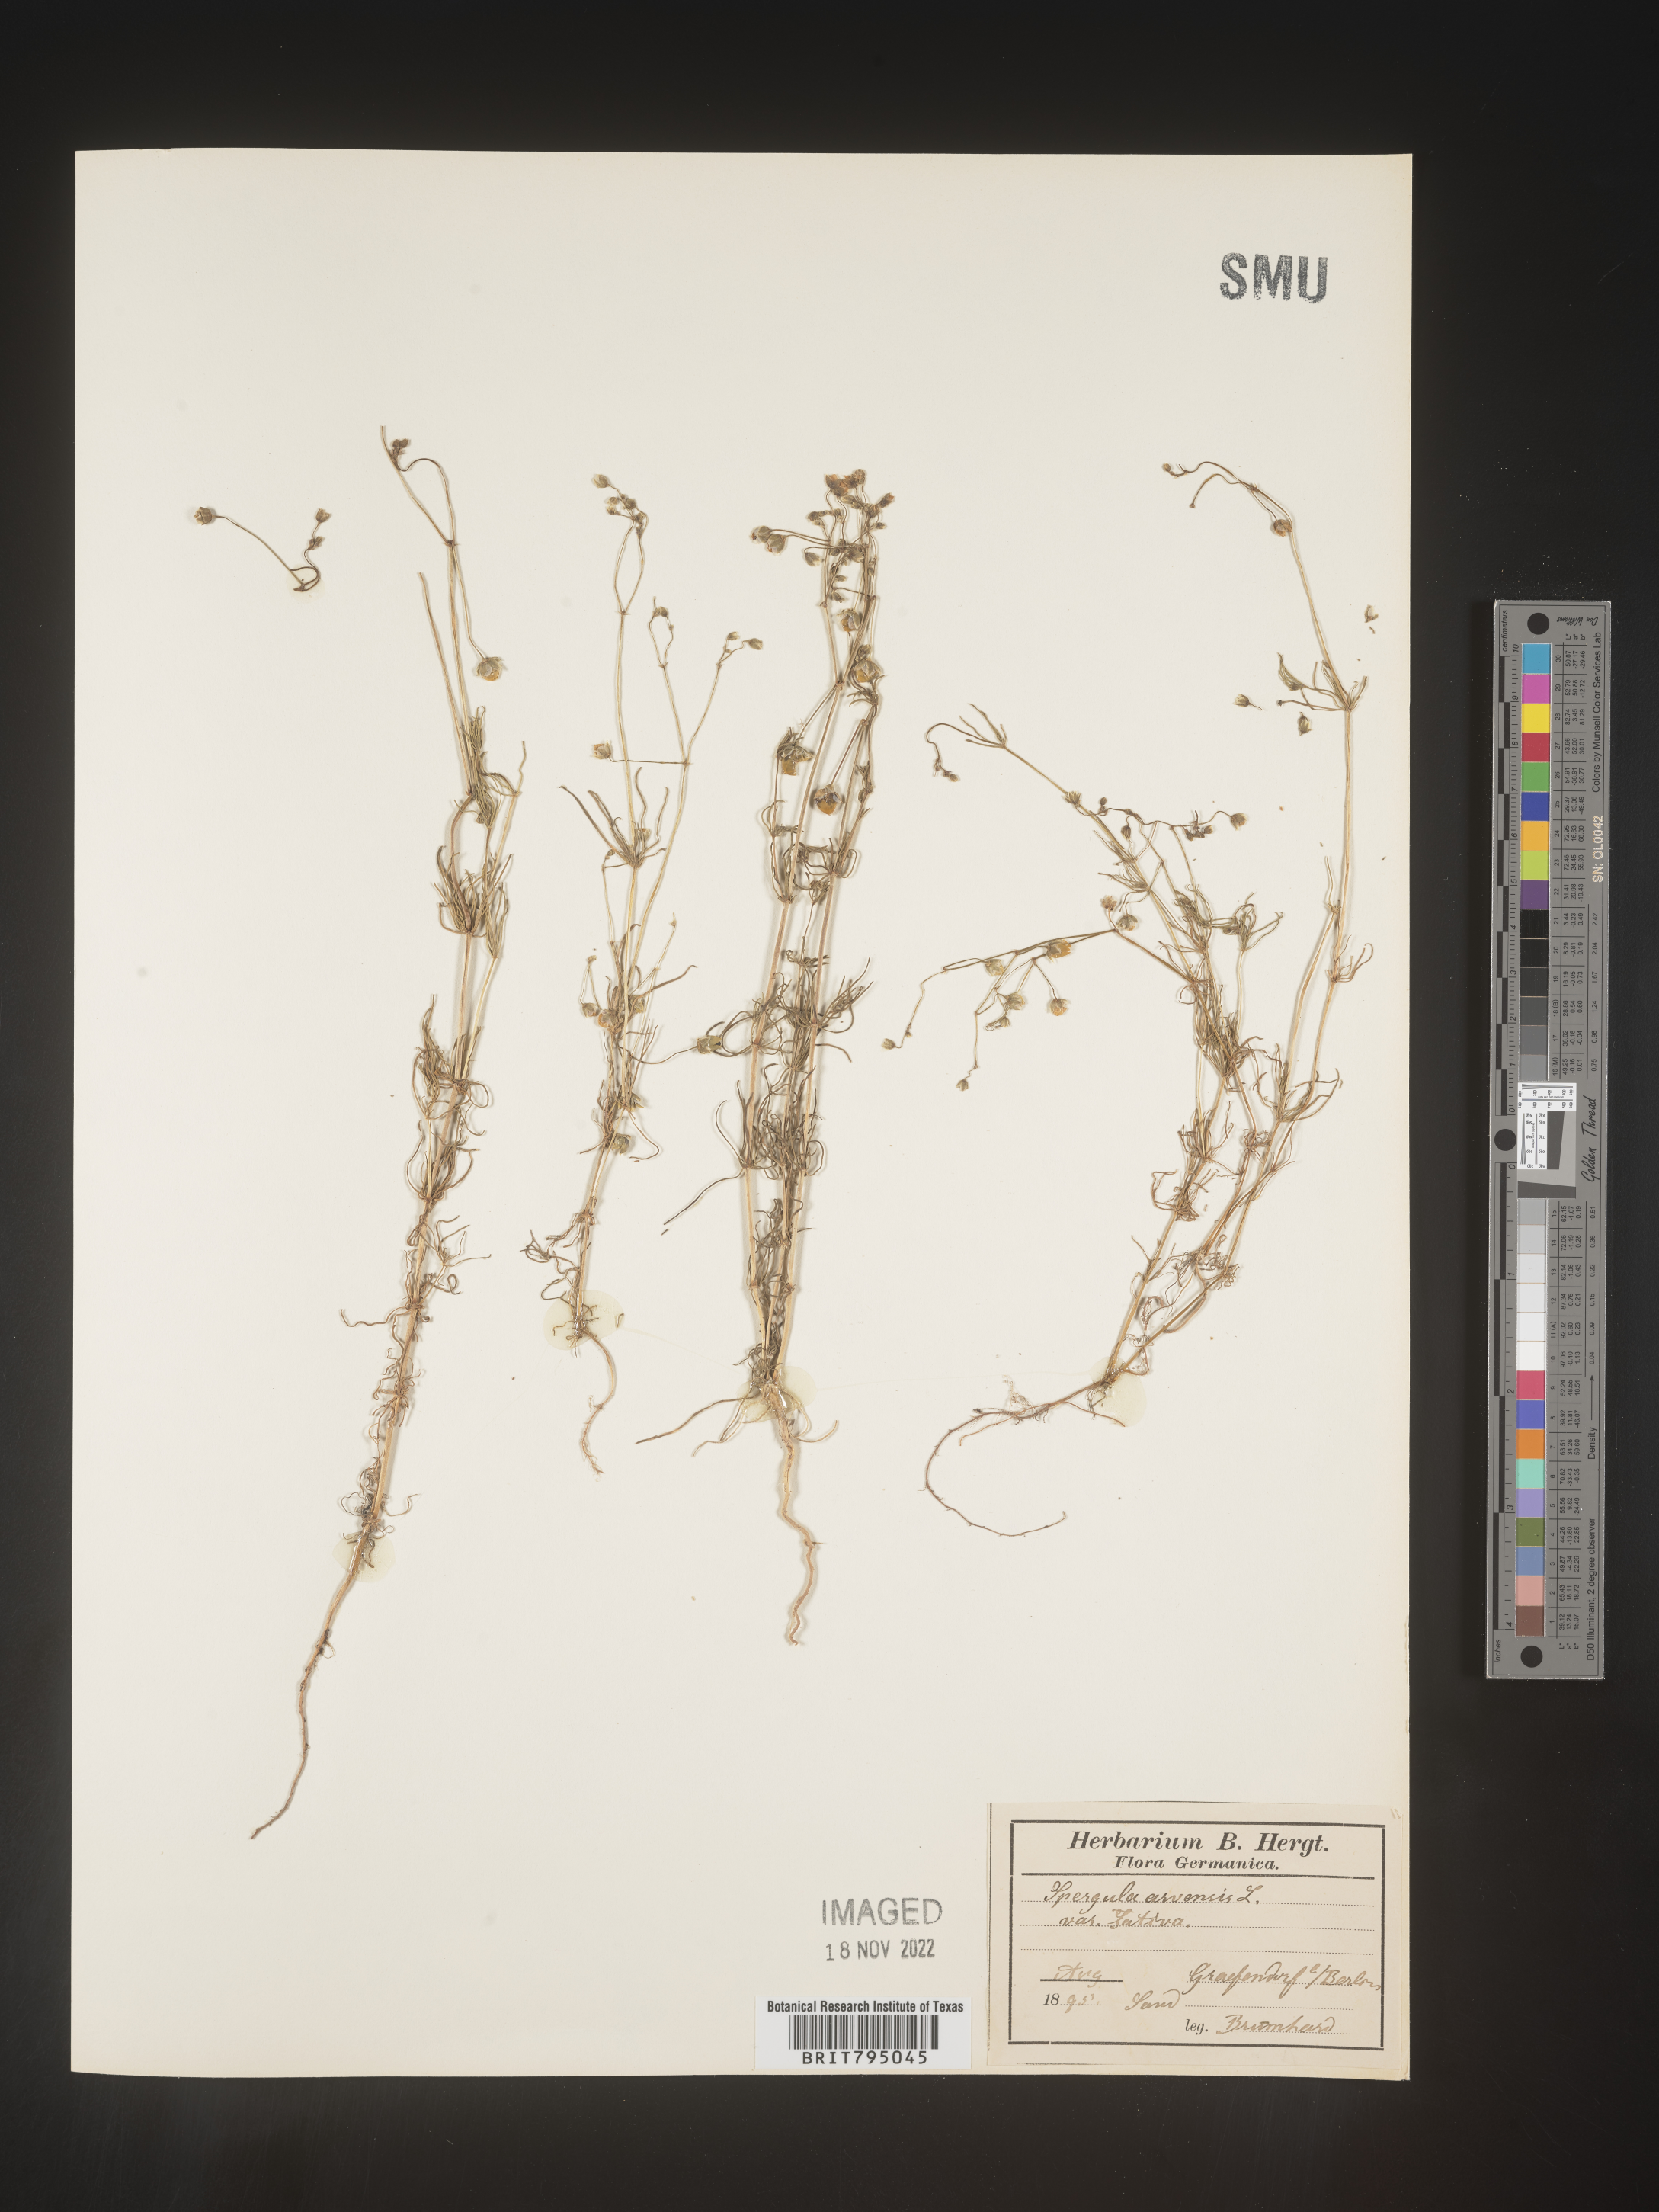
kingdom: Plantae
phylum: Tracheophyta
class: Magnoliopsida
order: Caryophyllales
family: Caryophyllaceae
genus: Spergula
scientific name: Spergula arvensis
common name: Corn spurrey
